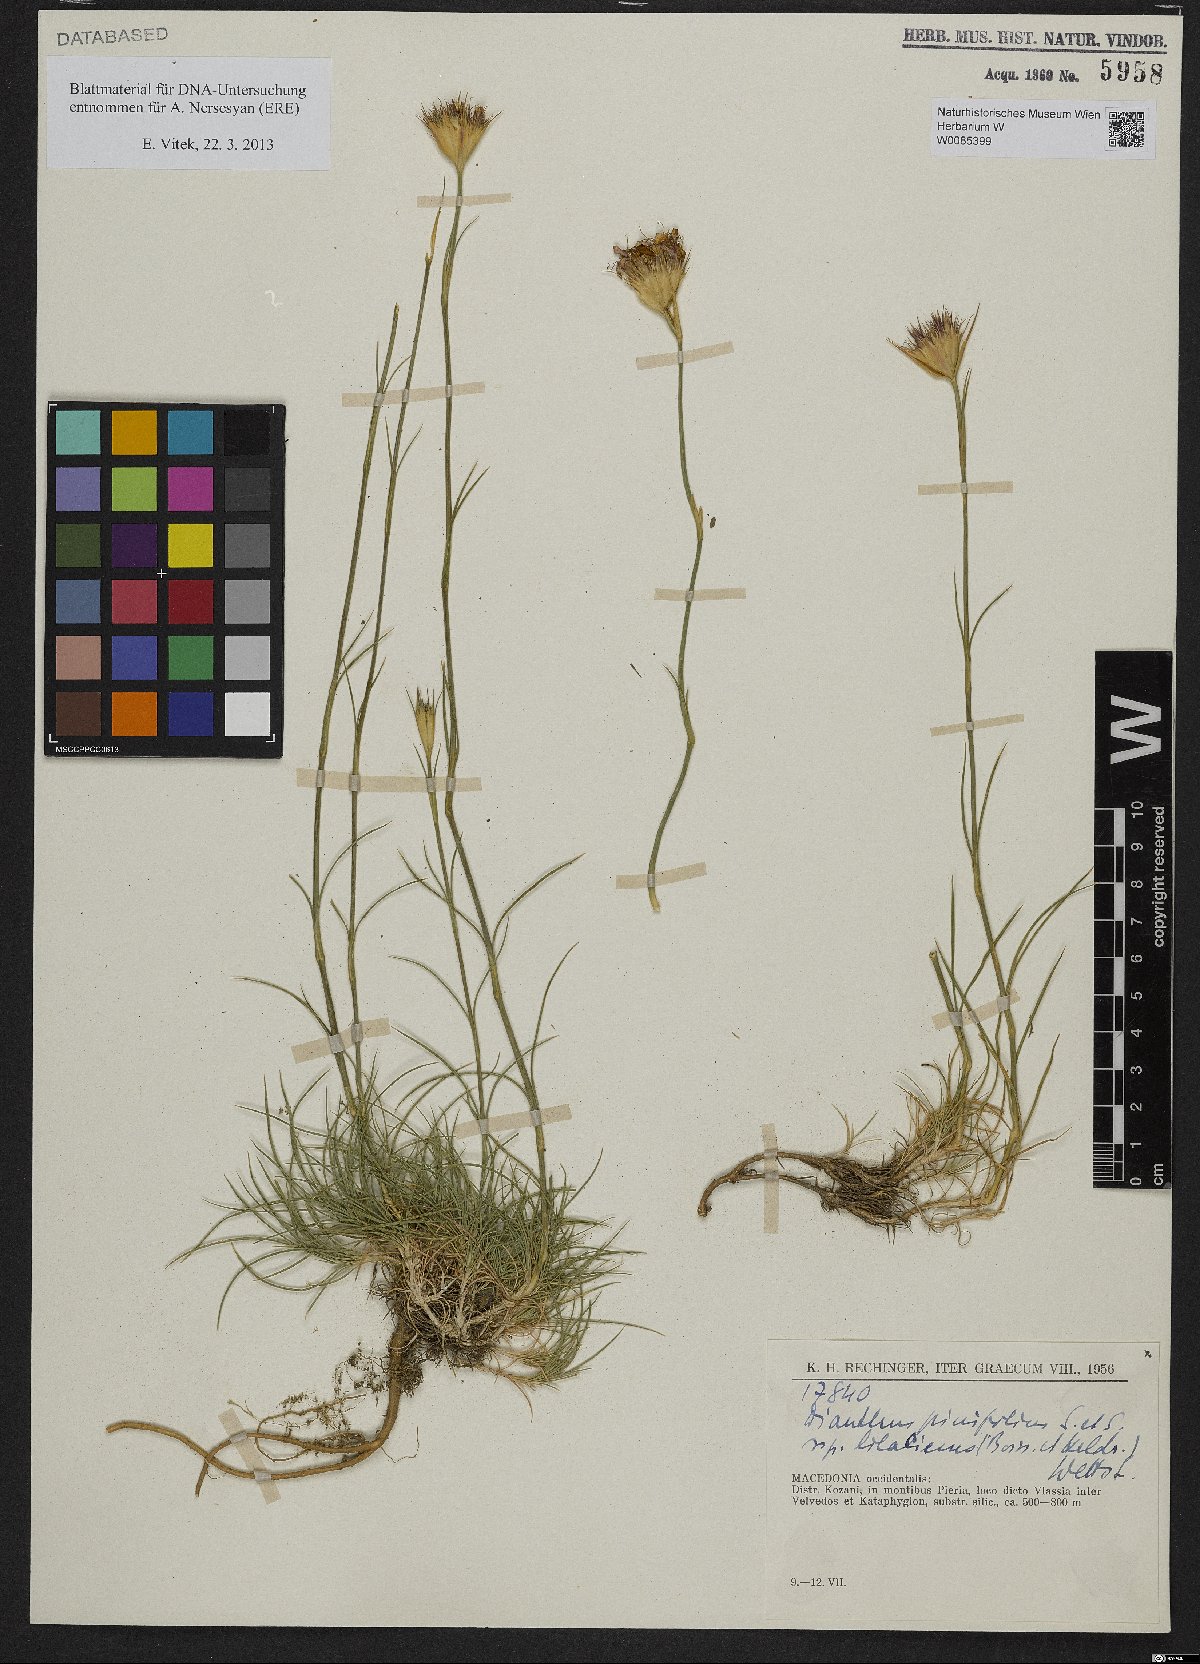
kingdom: Plantae
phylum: Tracheophyta
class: Magnoliopsida
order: Caryophyllales
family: Caryophyllaceae
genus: Dianthus
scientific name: Dianthus pinifolius
